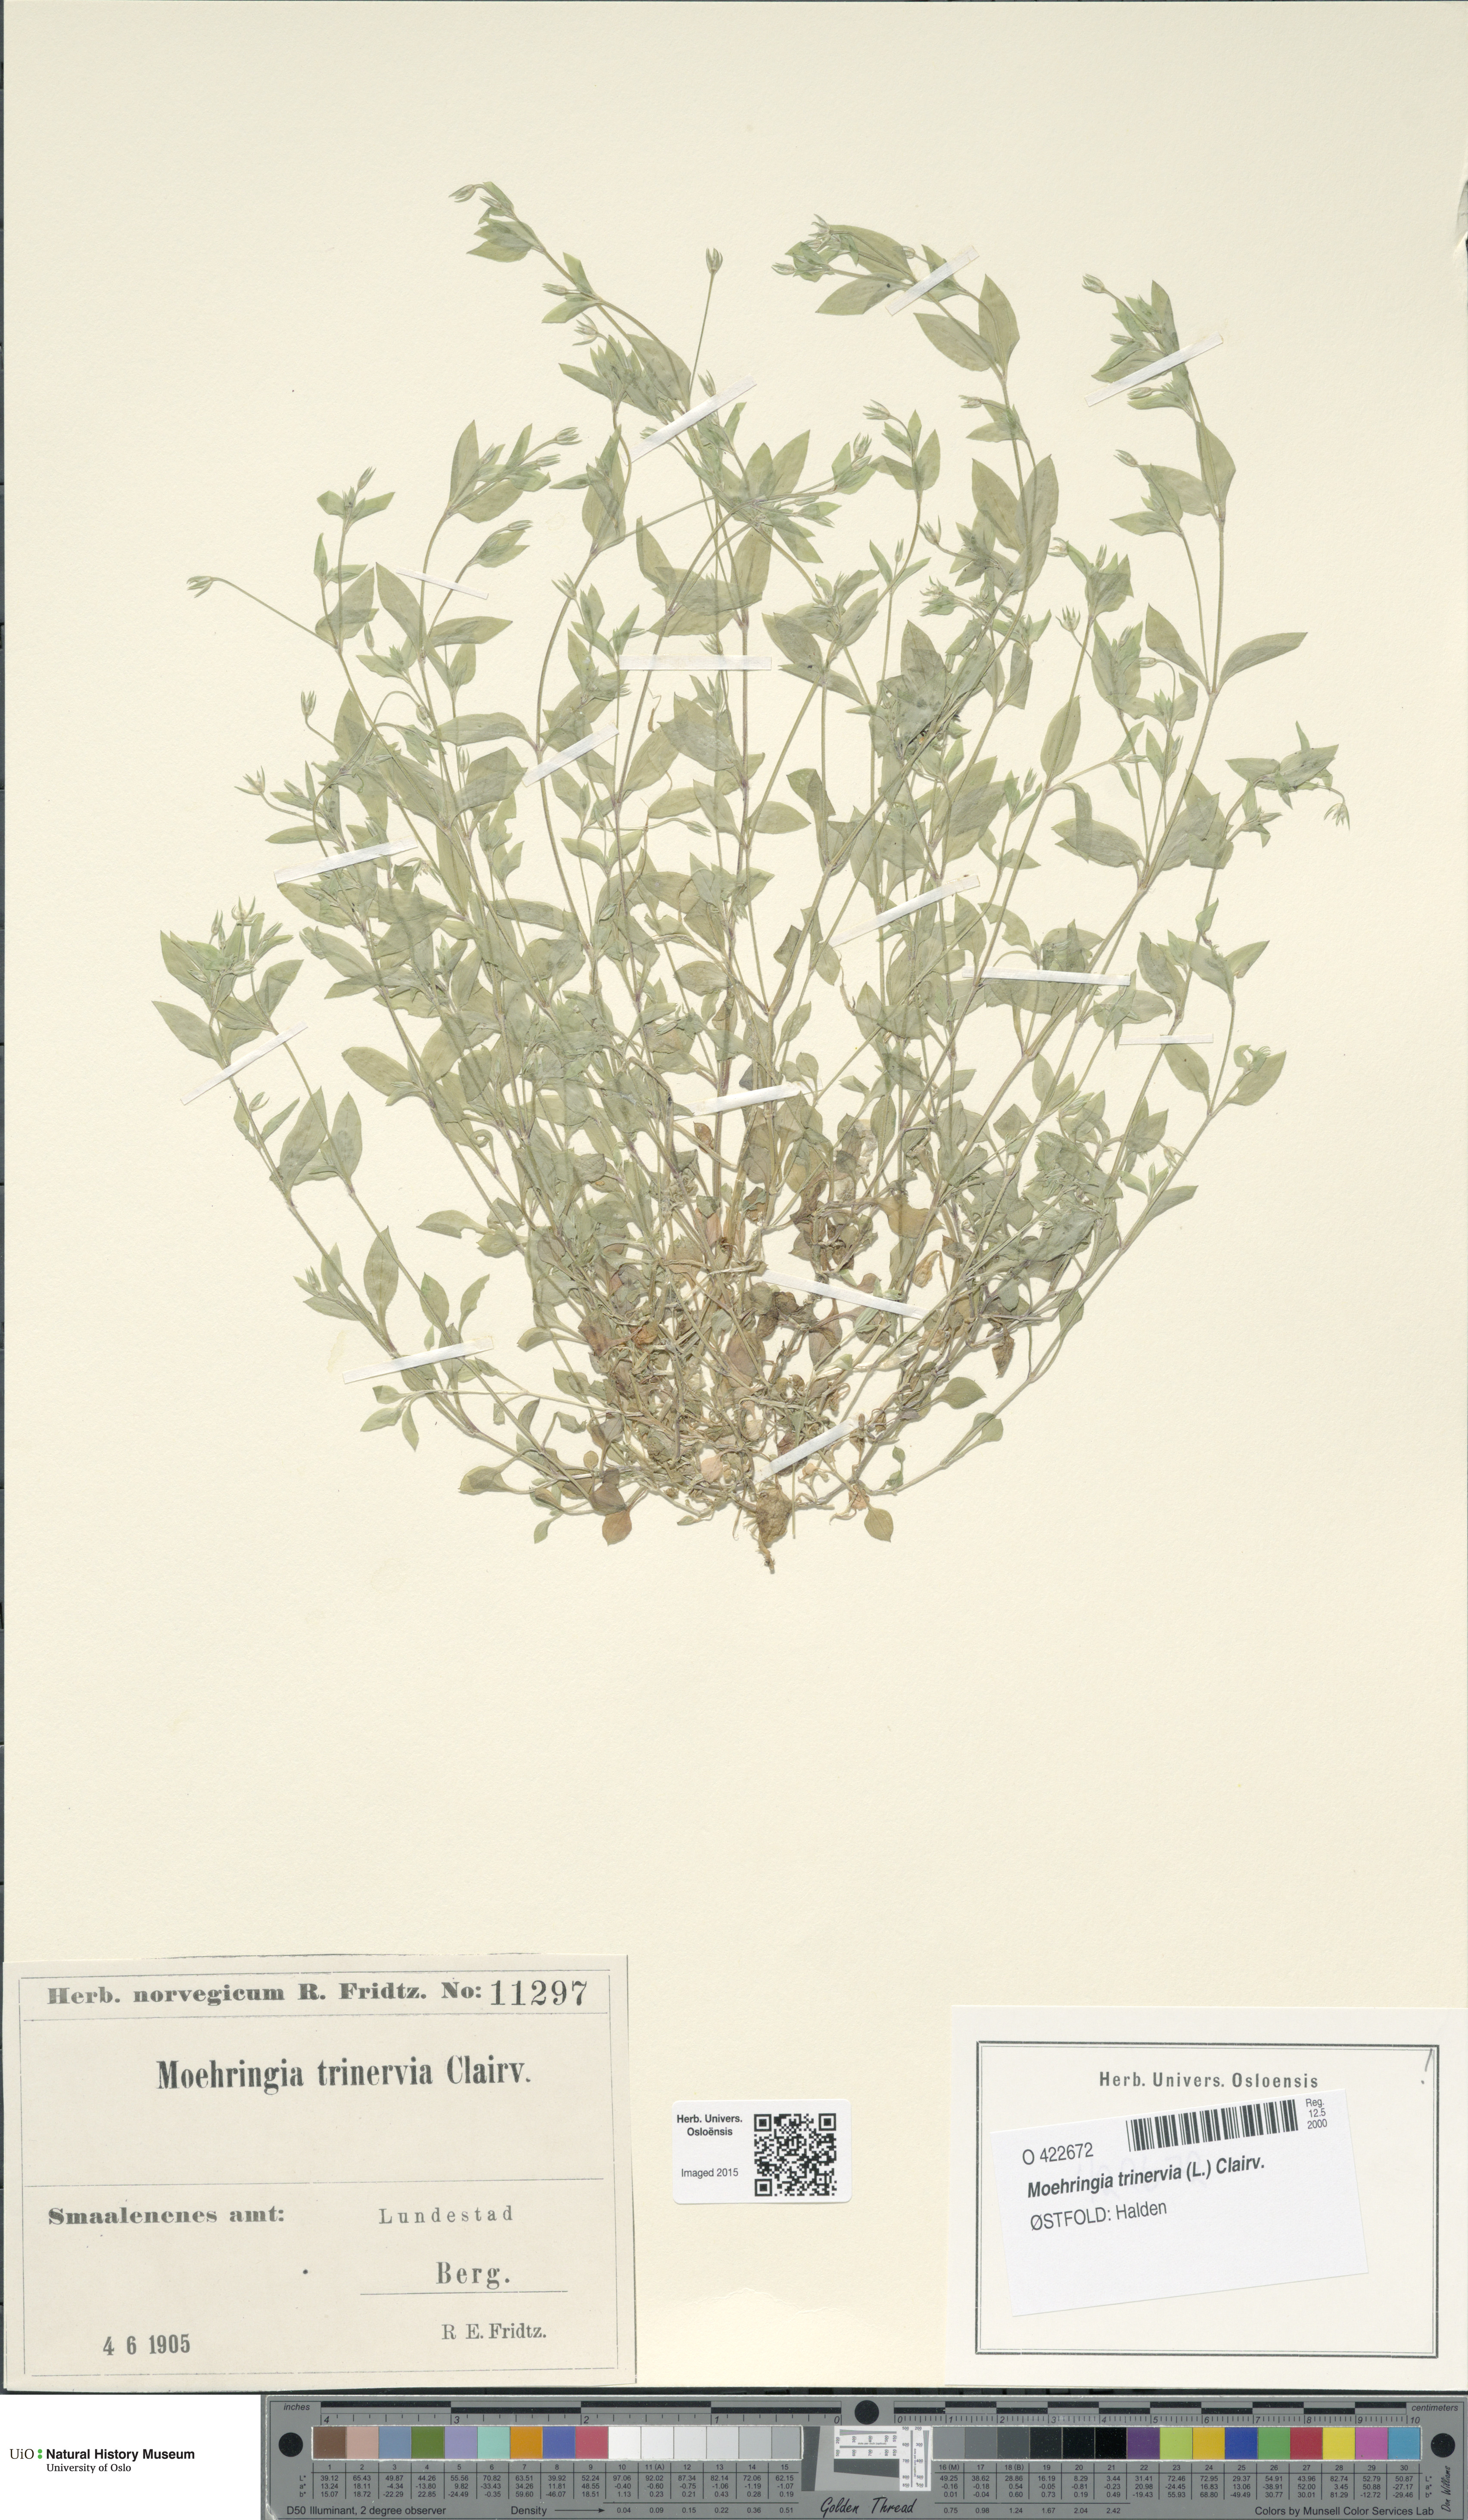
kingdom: Plantae
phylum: Tracheophyta
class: Magnoliopsida
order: Caryophyllales
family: Caryophyllaceae
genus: Moehringia
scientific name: Moehringia trinervia
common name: Three-nerved sandwort
